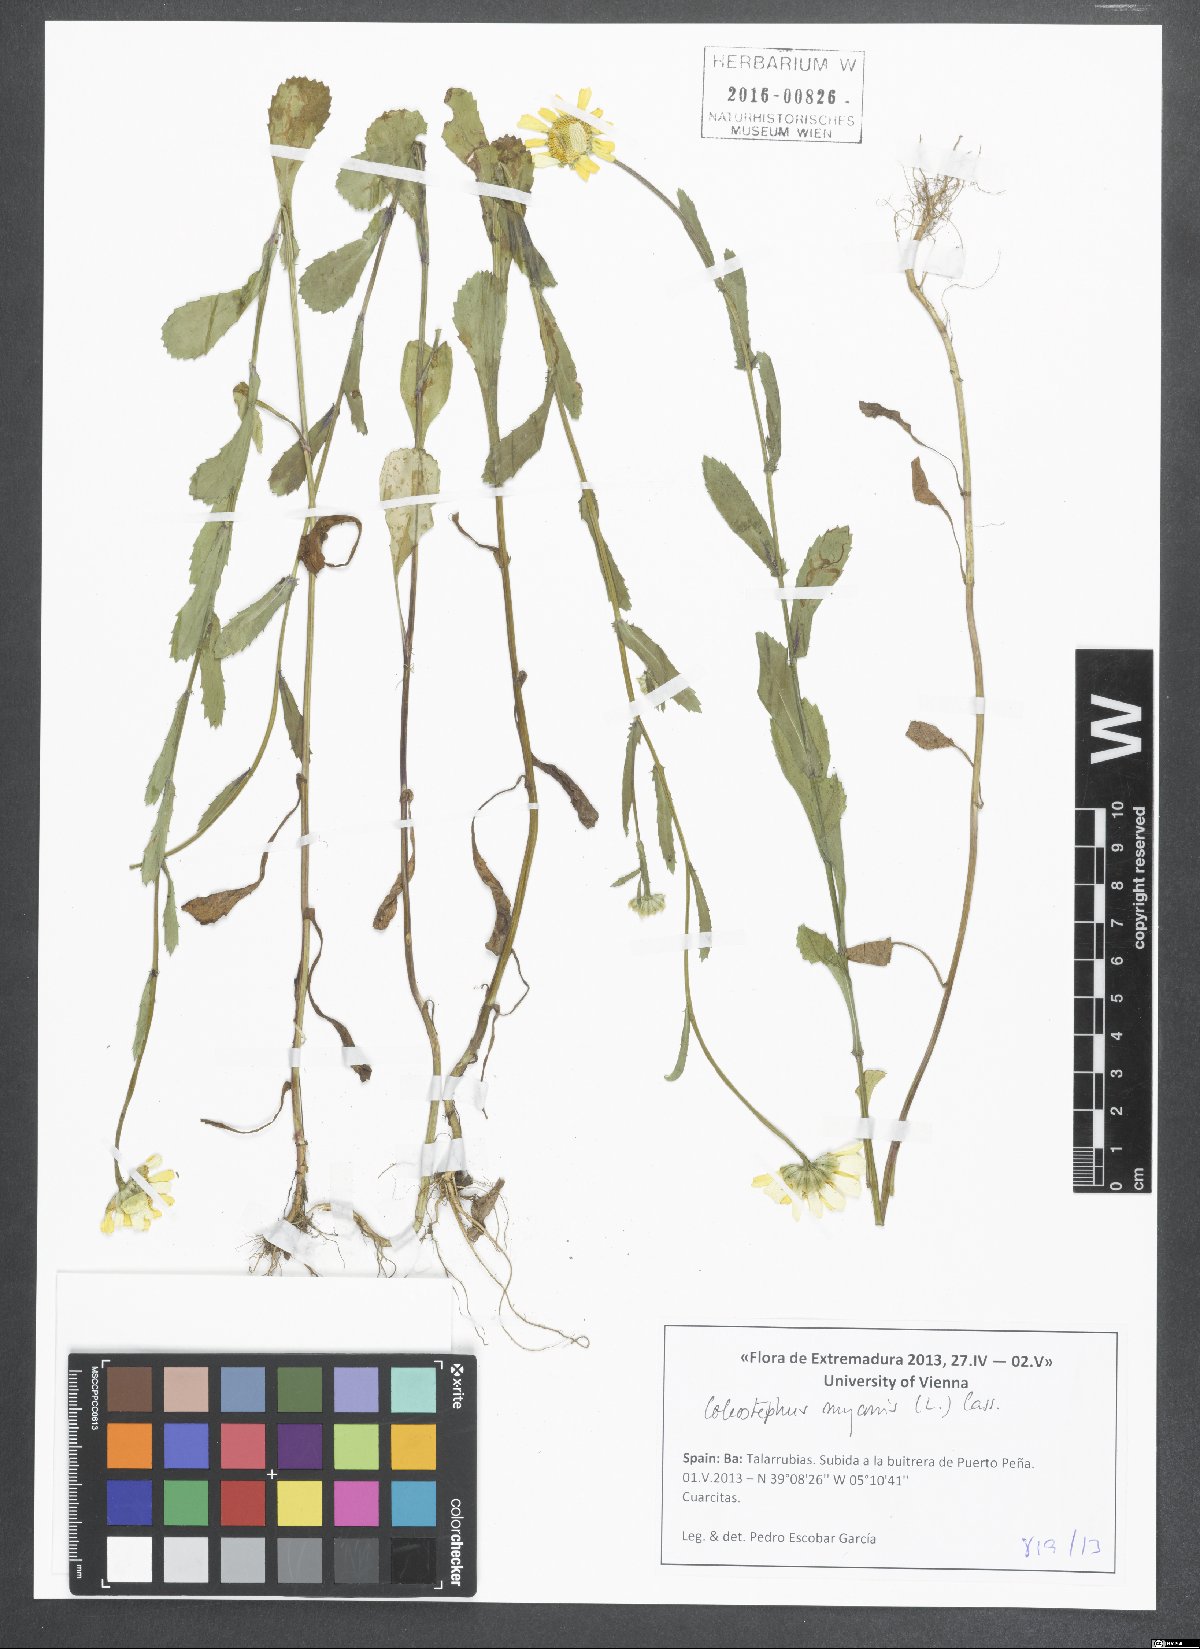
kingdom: Plantae
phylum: Tracheophyta
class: Magnoliopsida
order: Asterales
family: Asteraceae
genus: Coleostephus
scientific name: Coleostephus myconis
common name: Mediterranean marigold
